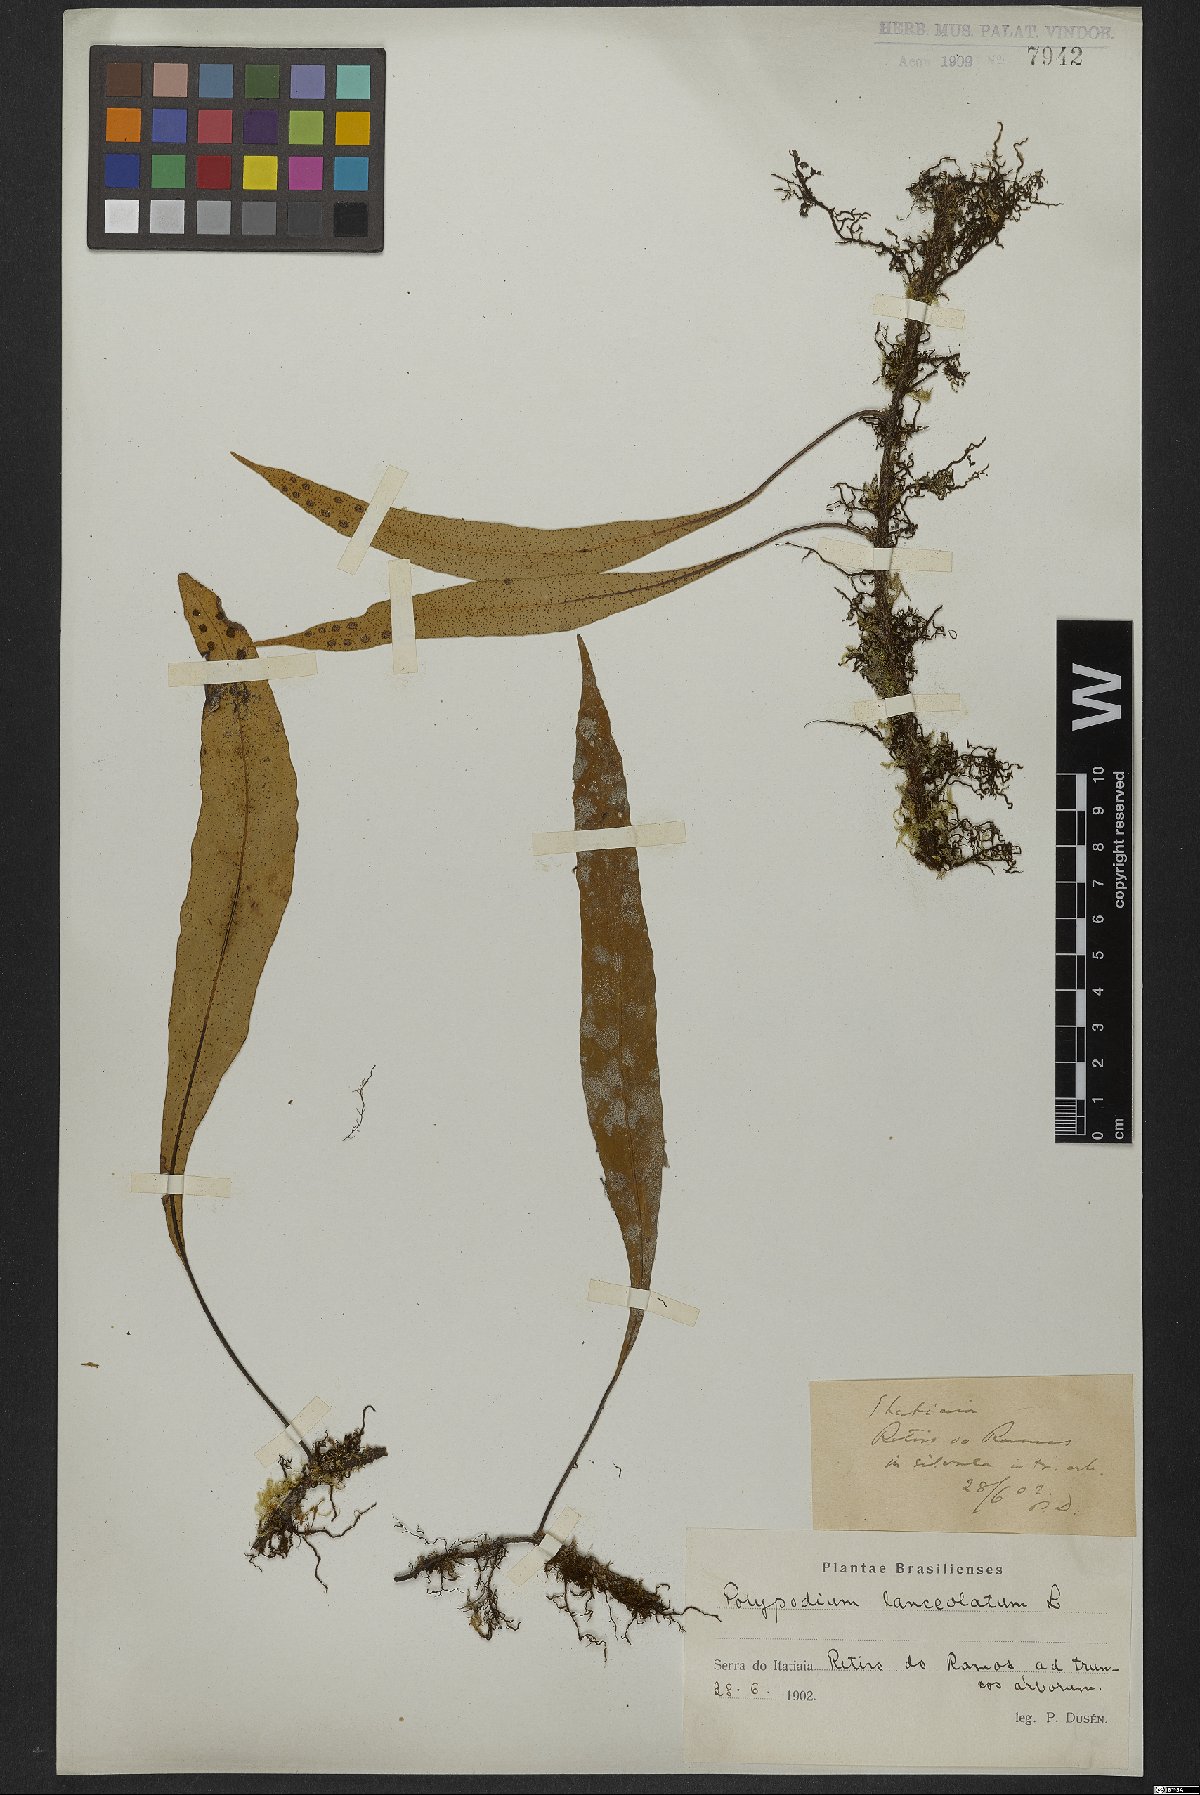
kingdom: Plantae
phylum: Tracheophyta
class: Polypodiopsida
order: Polypodiales
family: Polypodiaceae
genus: Pleopeltis
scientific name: Pleopeltis macrocarpa
